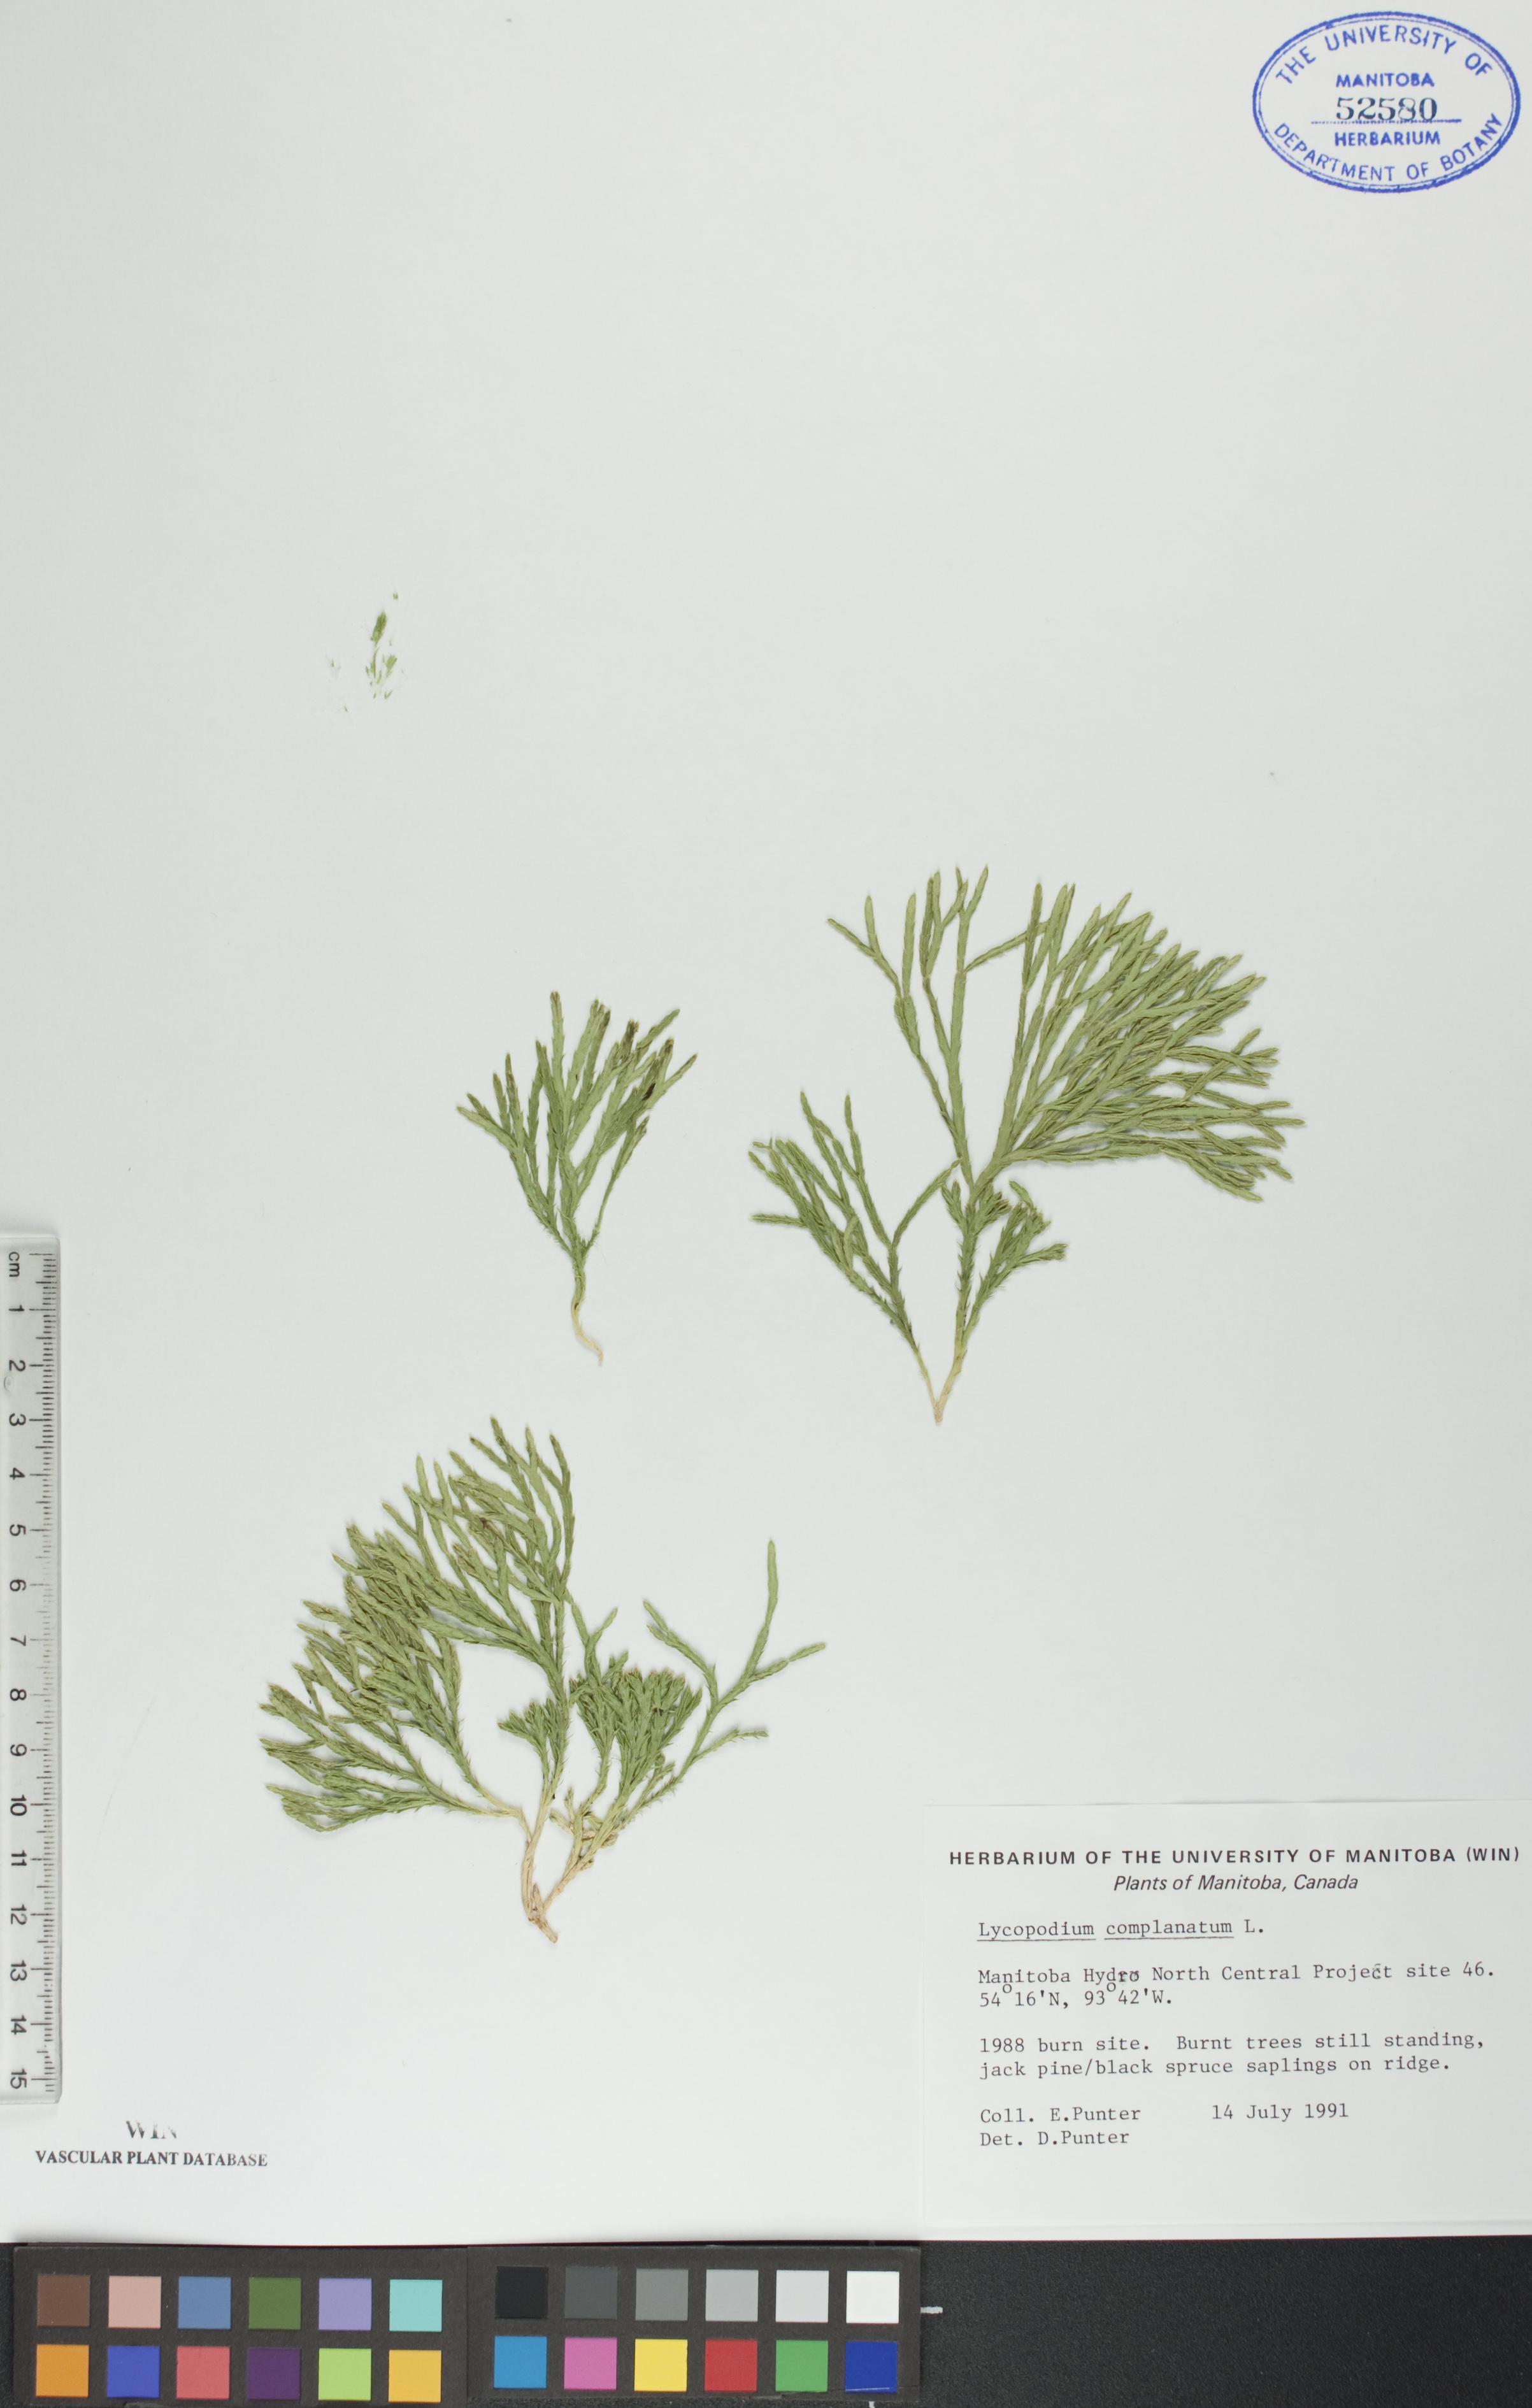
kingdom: Plantae
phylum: Tracheophyta
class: Lycopodiopsida
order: Lycopodiales
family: Lycopodiaceae
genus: Diphasiastrum
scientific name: Diphasiastrum
